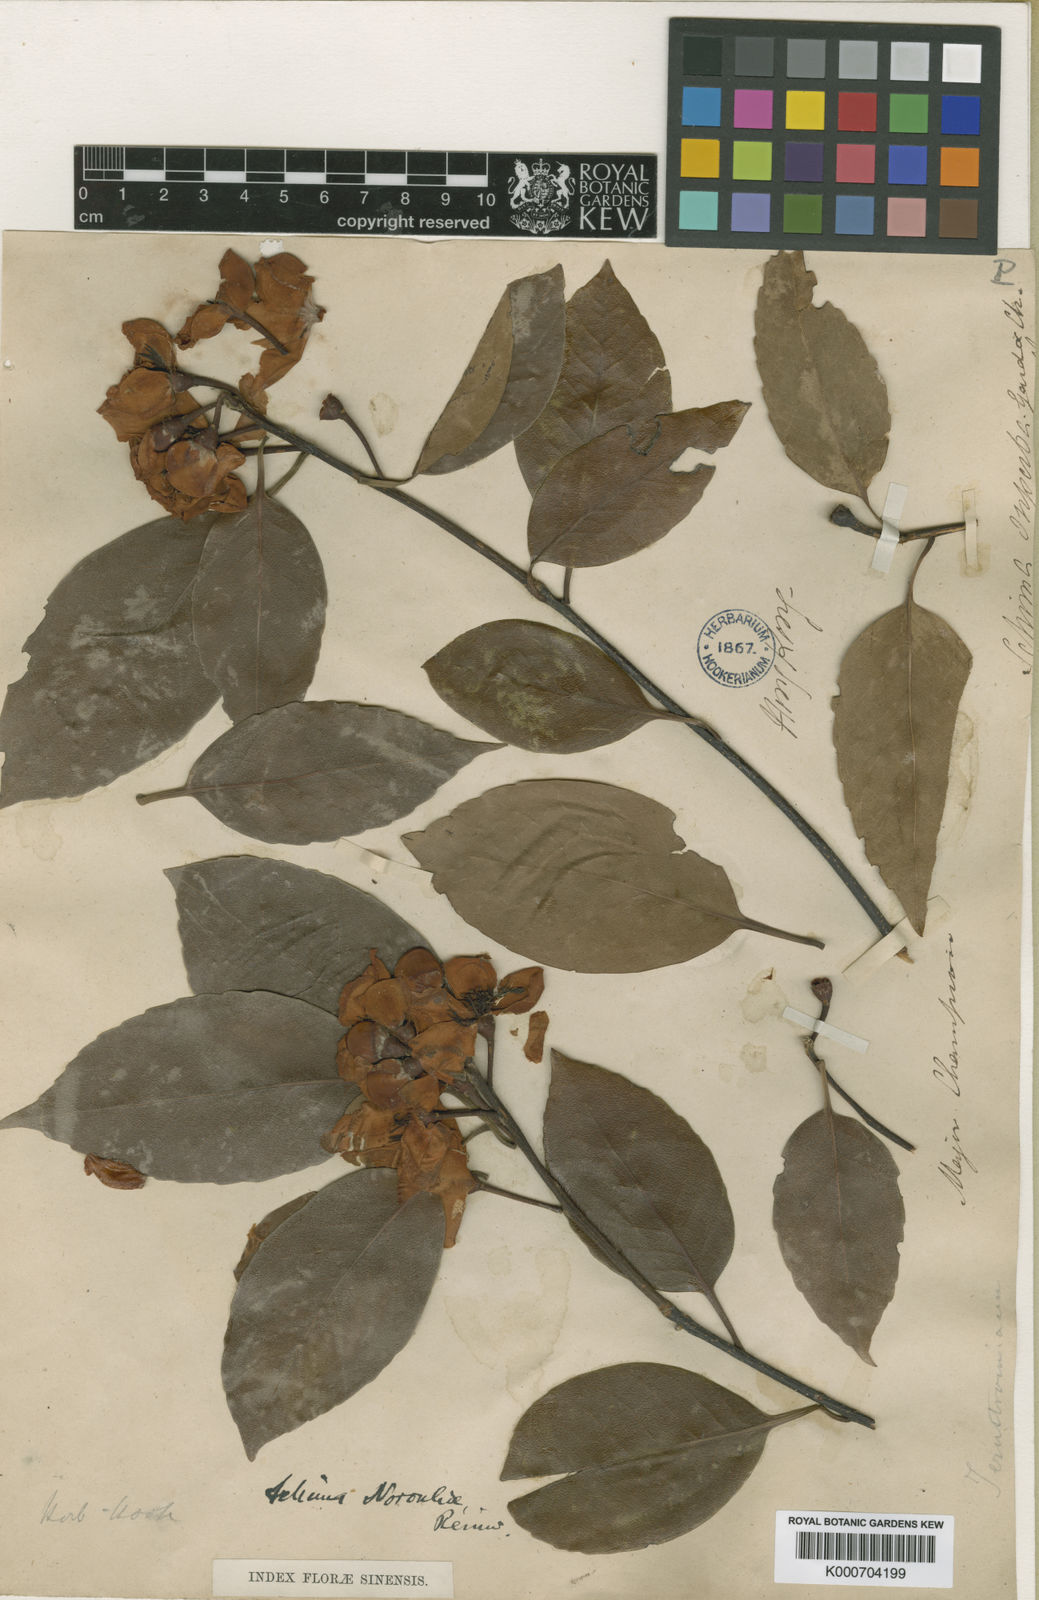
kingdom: Plantae
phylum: Tracheophyta
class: Magnoliopsida
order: Ericales
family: Theaceae
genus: Schima
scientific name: Schima superba
